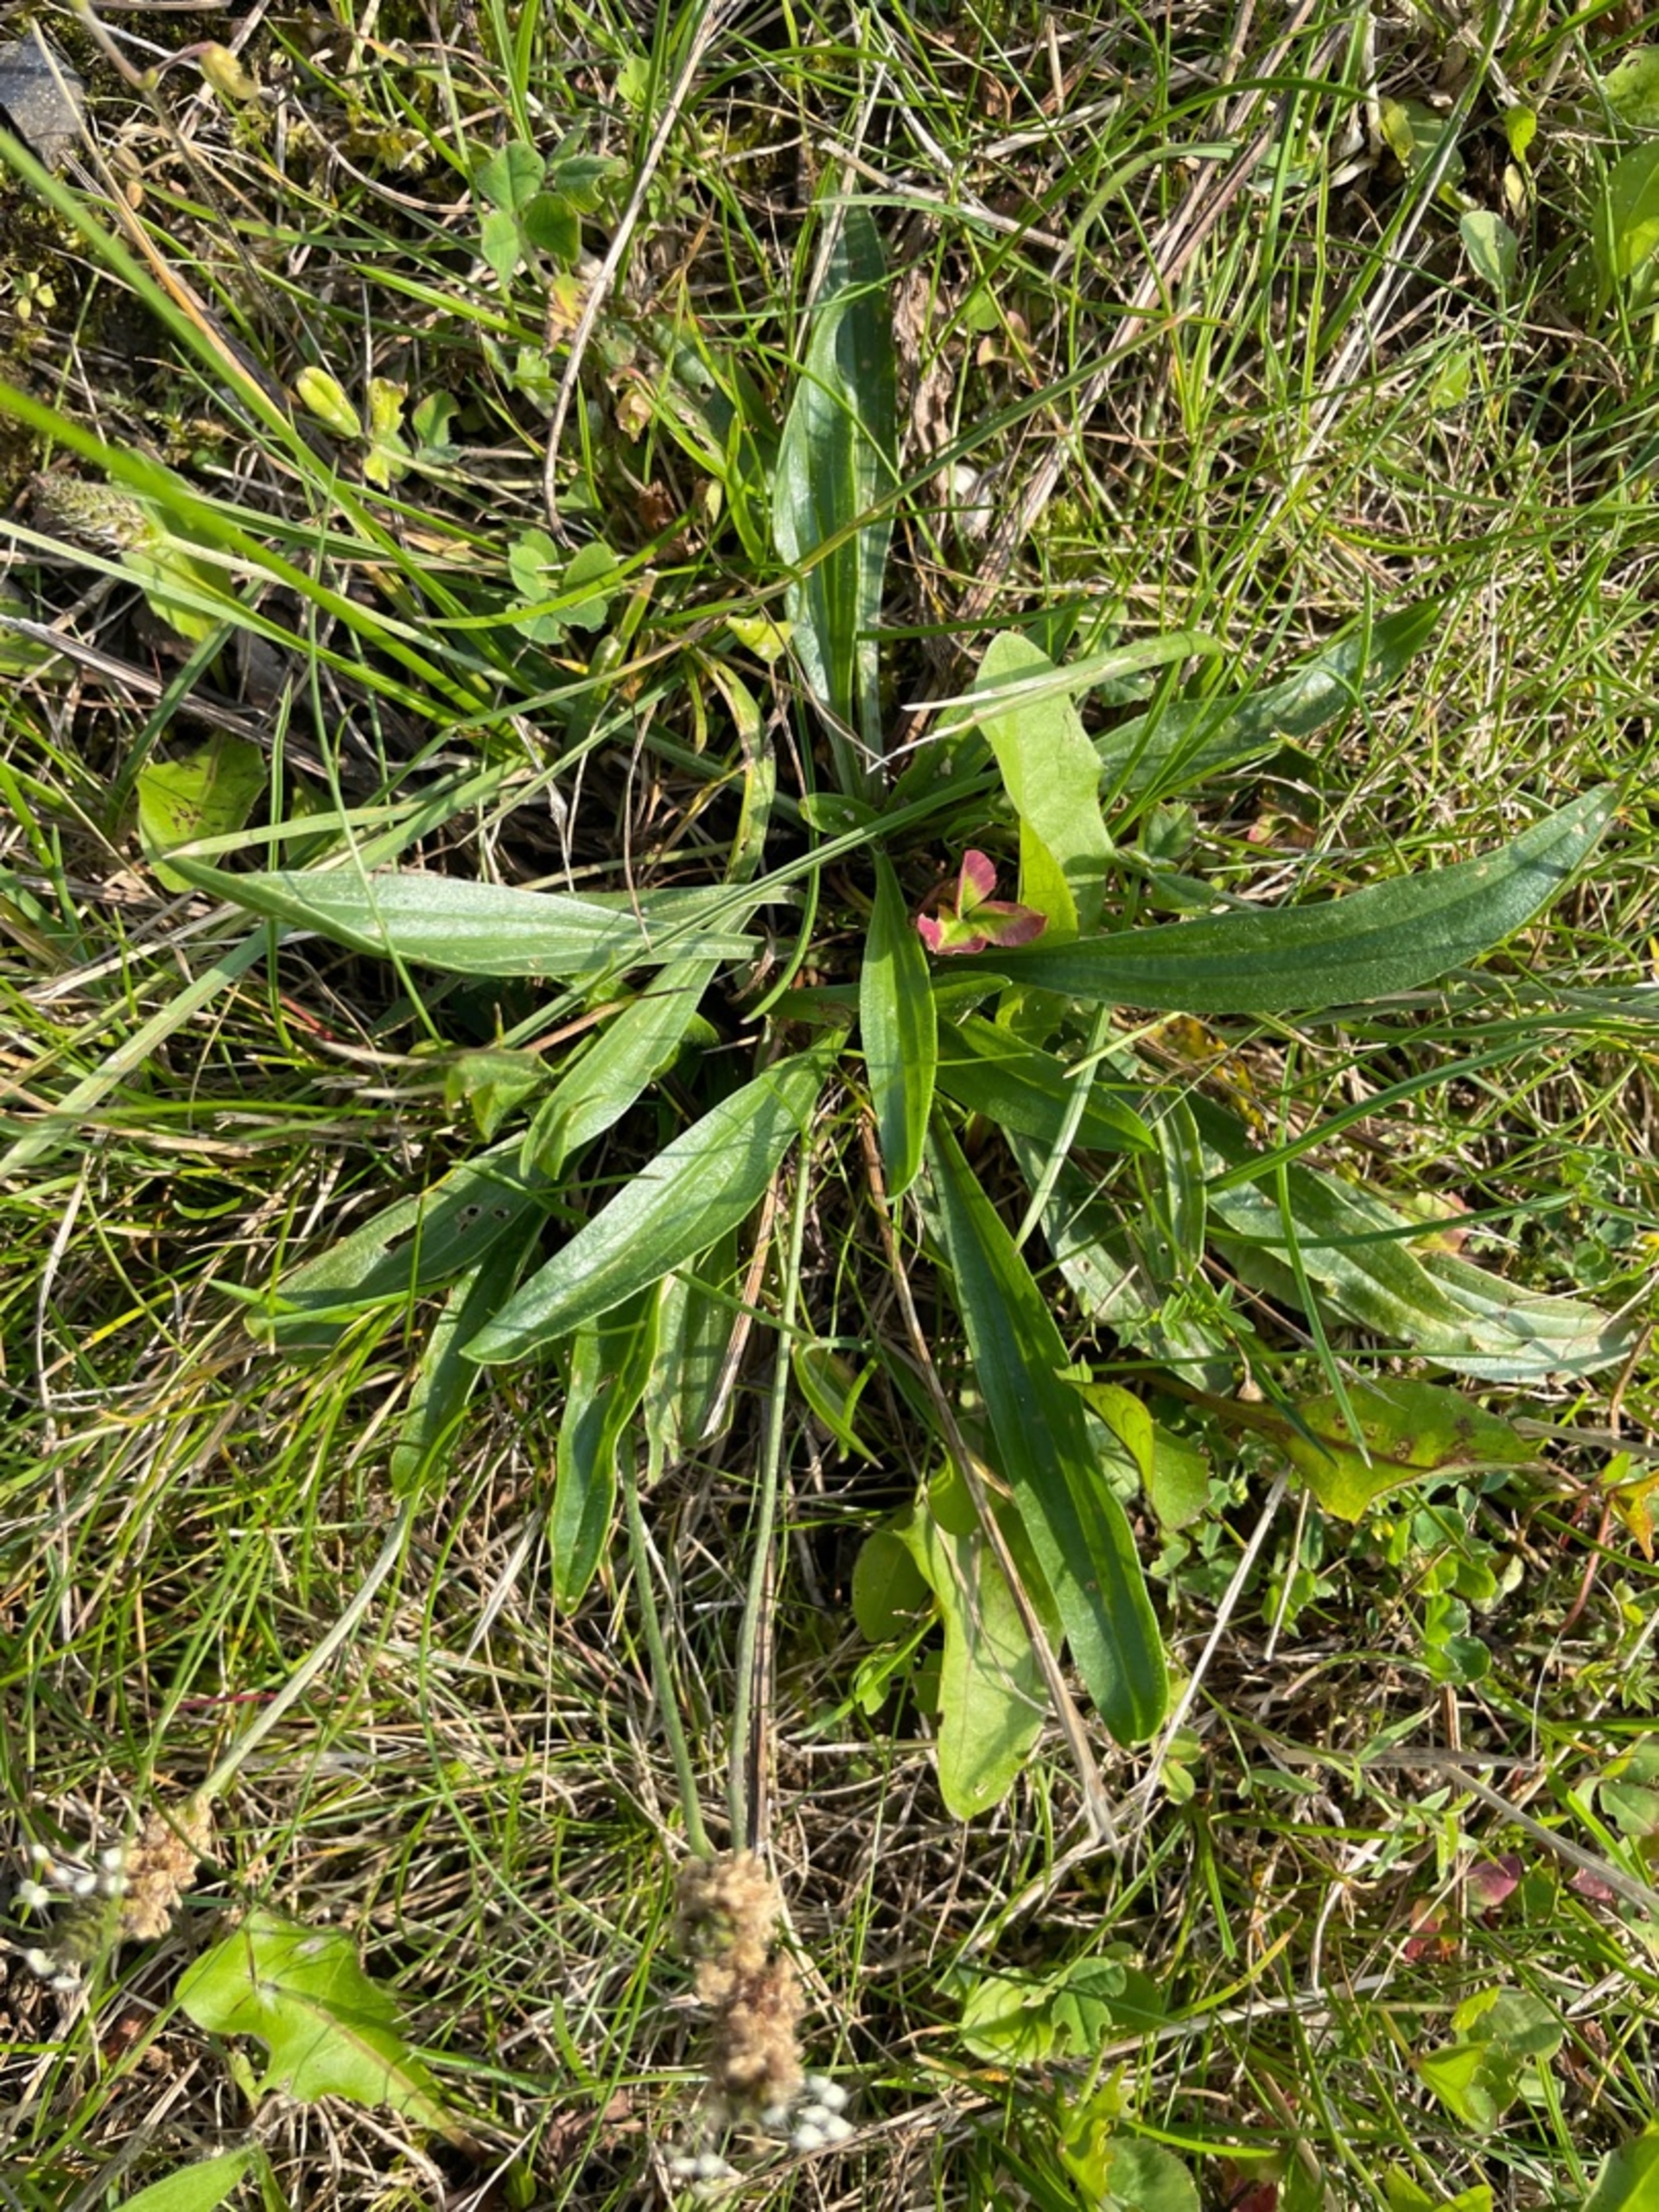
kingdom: Plantae
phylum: Tracheophyta
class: Magnoliopsida
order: Lamiales
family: Plantaginaceae
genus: Plantago
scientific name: Plantago lanceolata
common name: Lancet-vejbred
